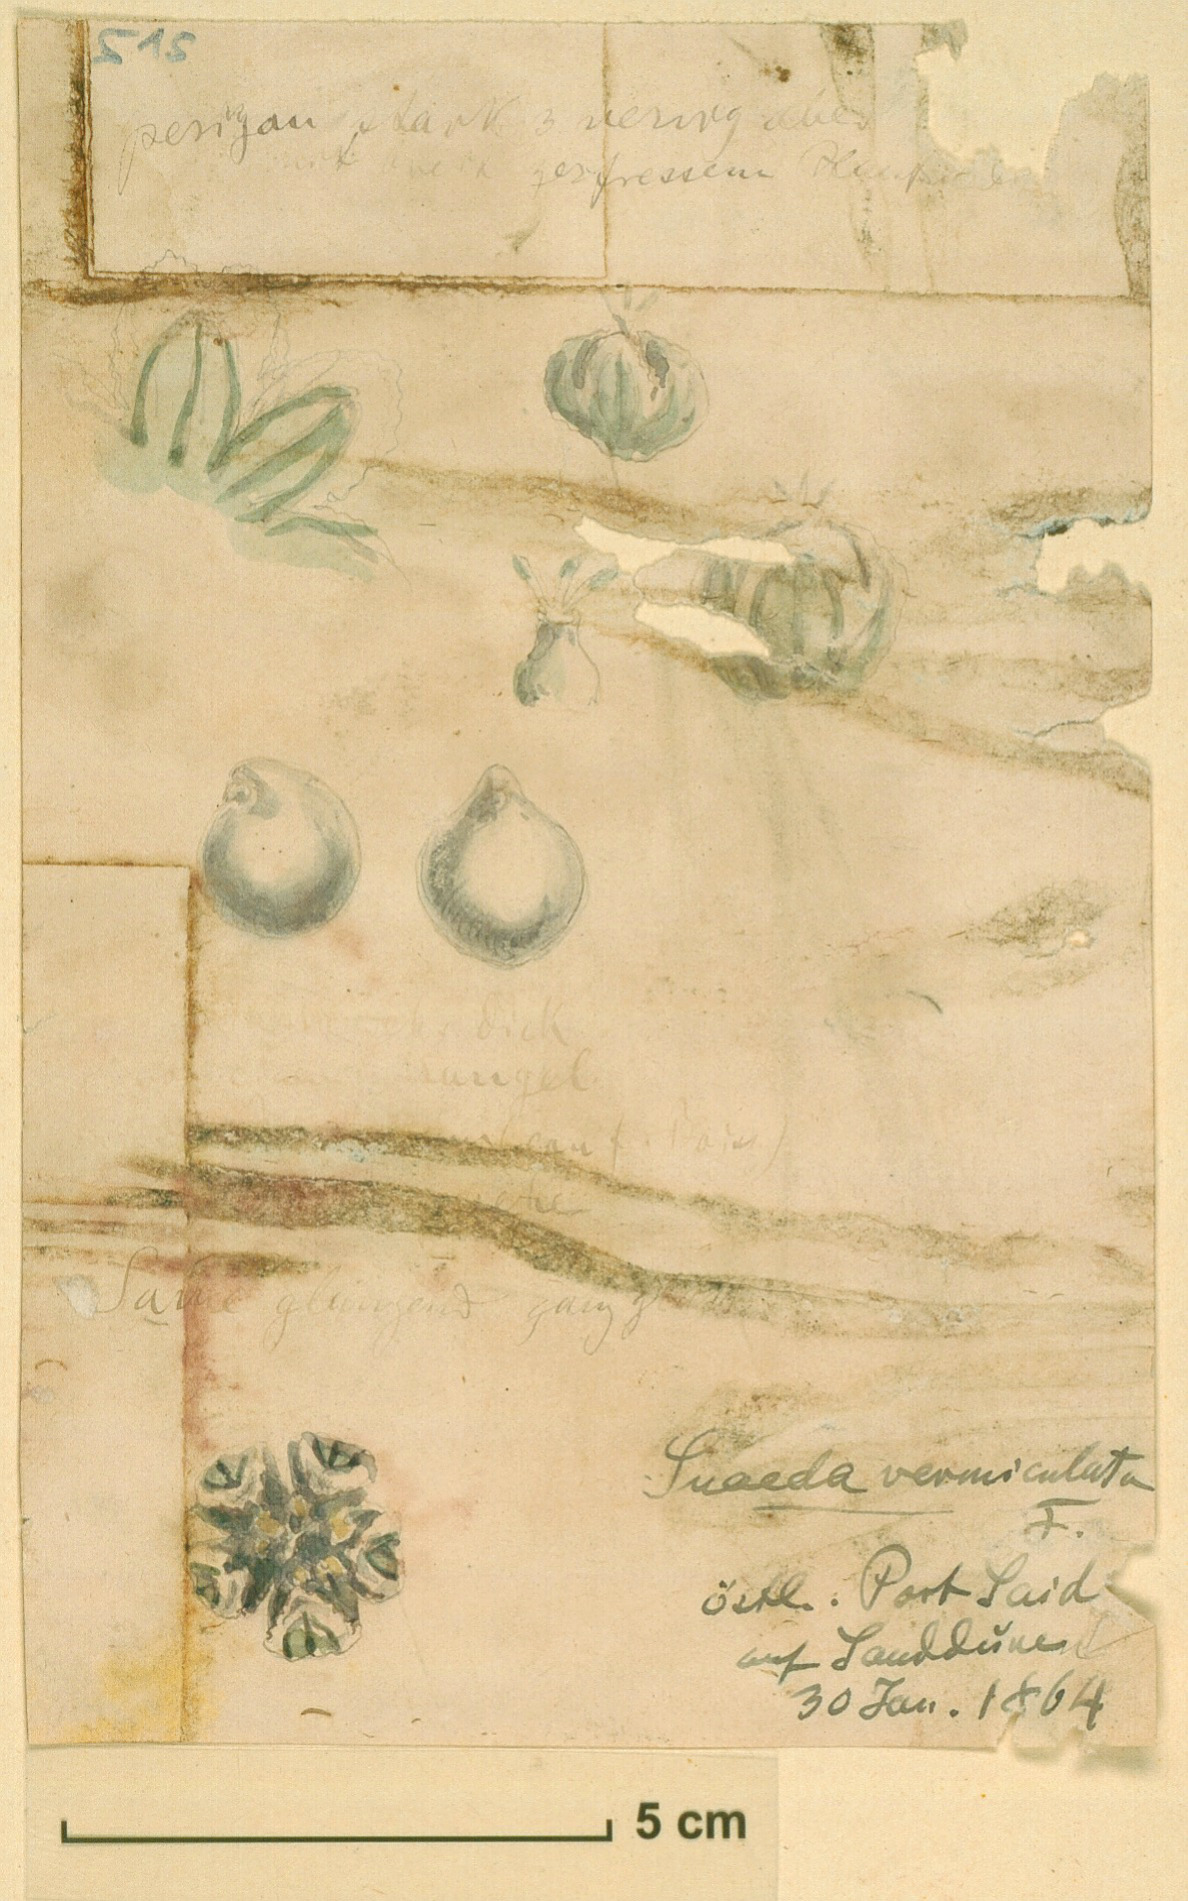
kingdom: Plantae
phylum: Tracheophyta
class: Magnoliopsida
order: Caryophyllales
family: Amaranthaceae
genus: Suaeda
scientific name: Suaeda vermiculata
